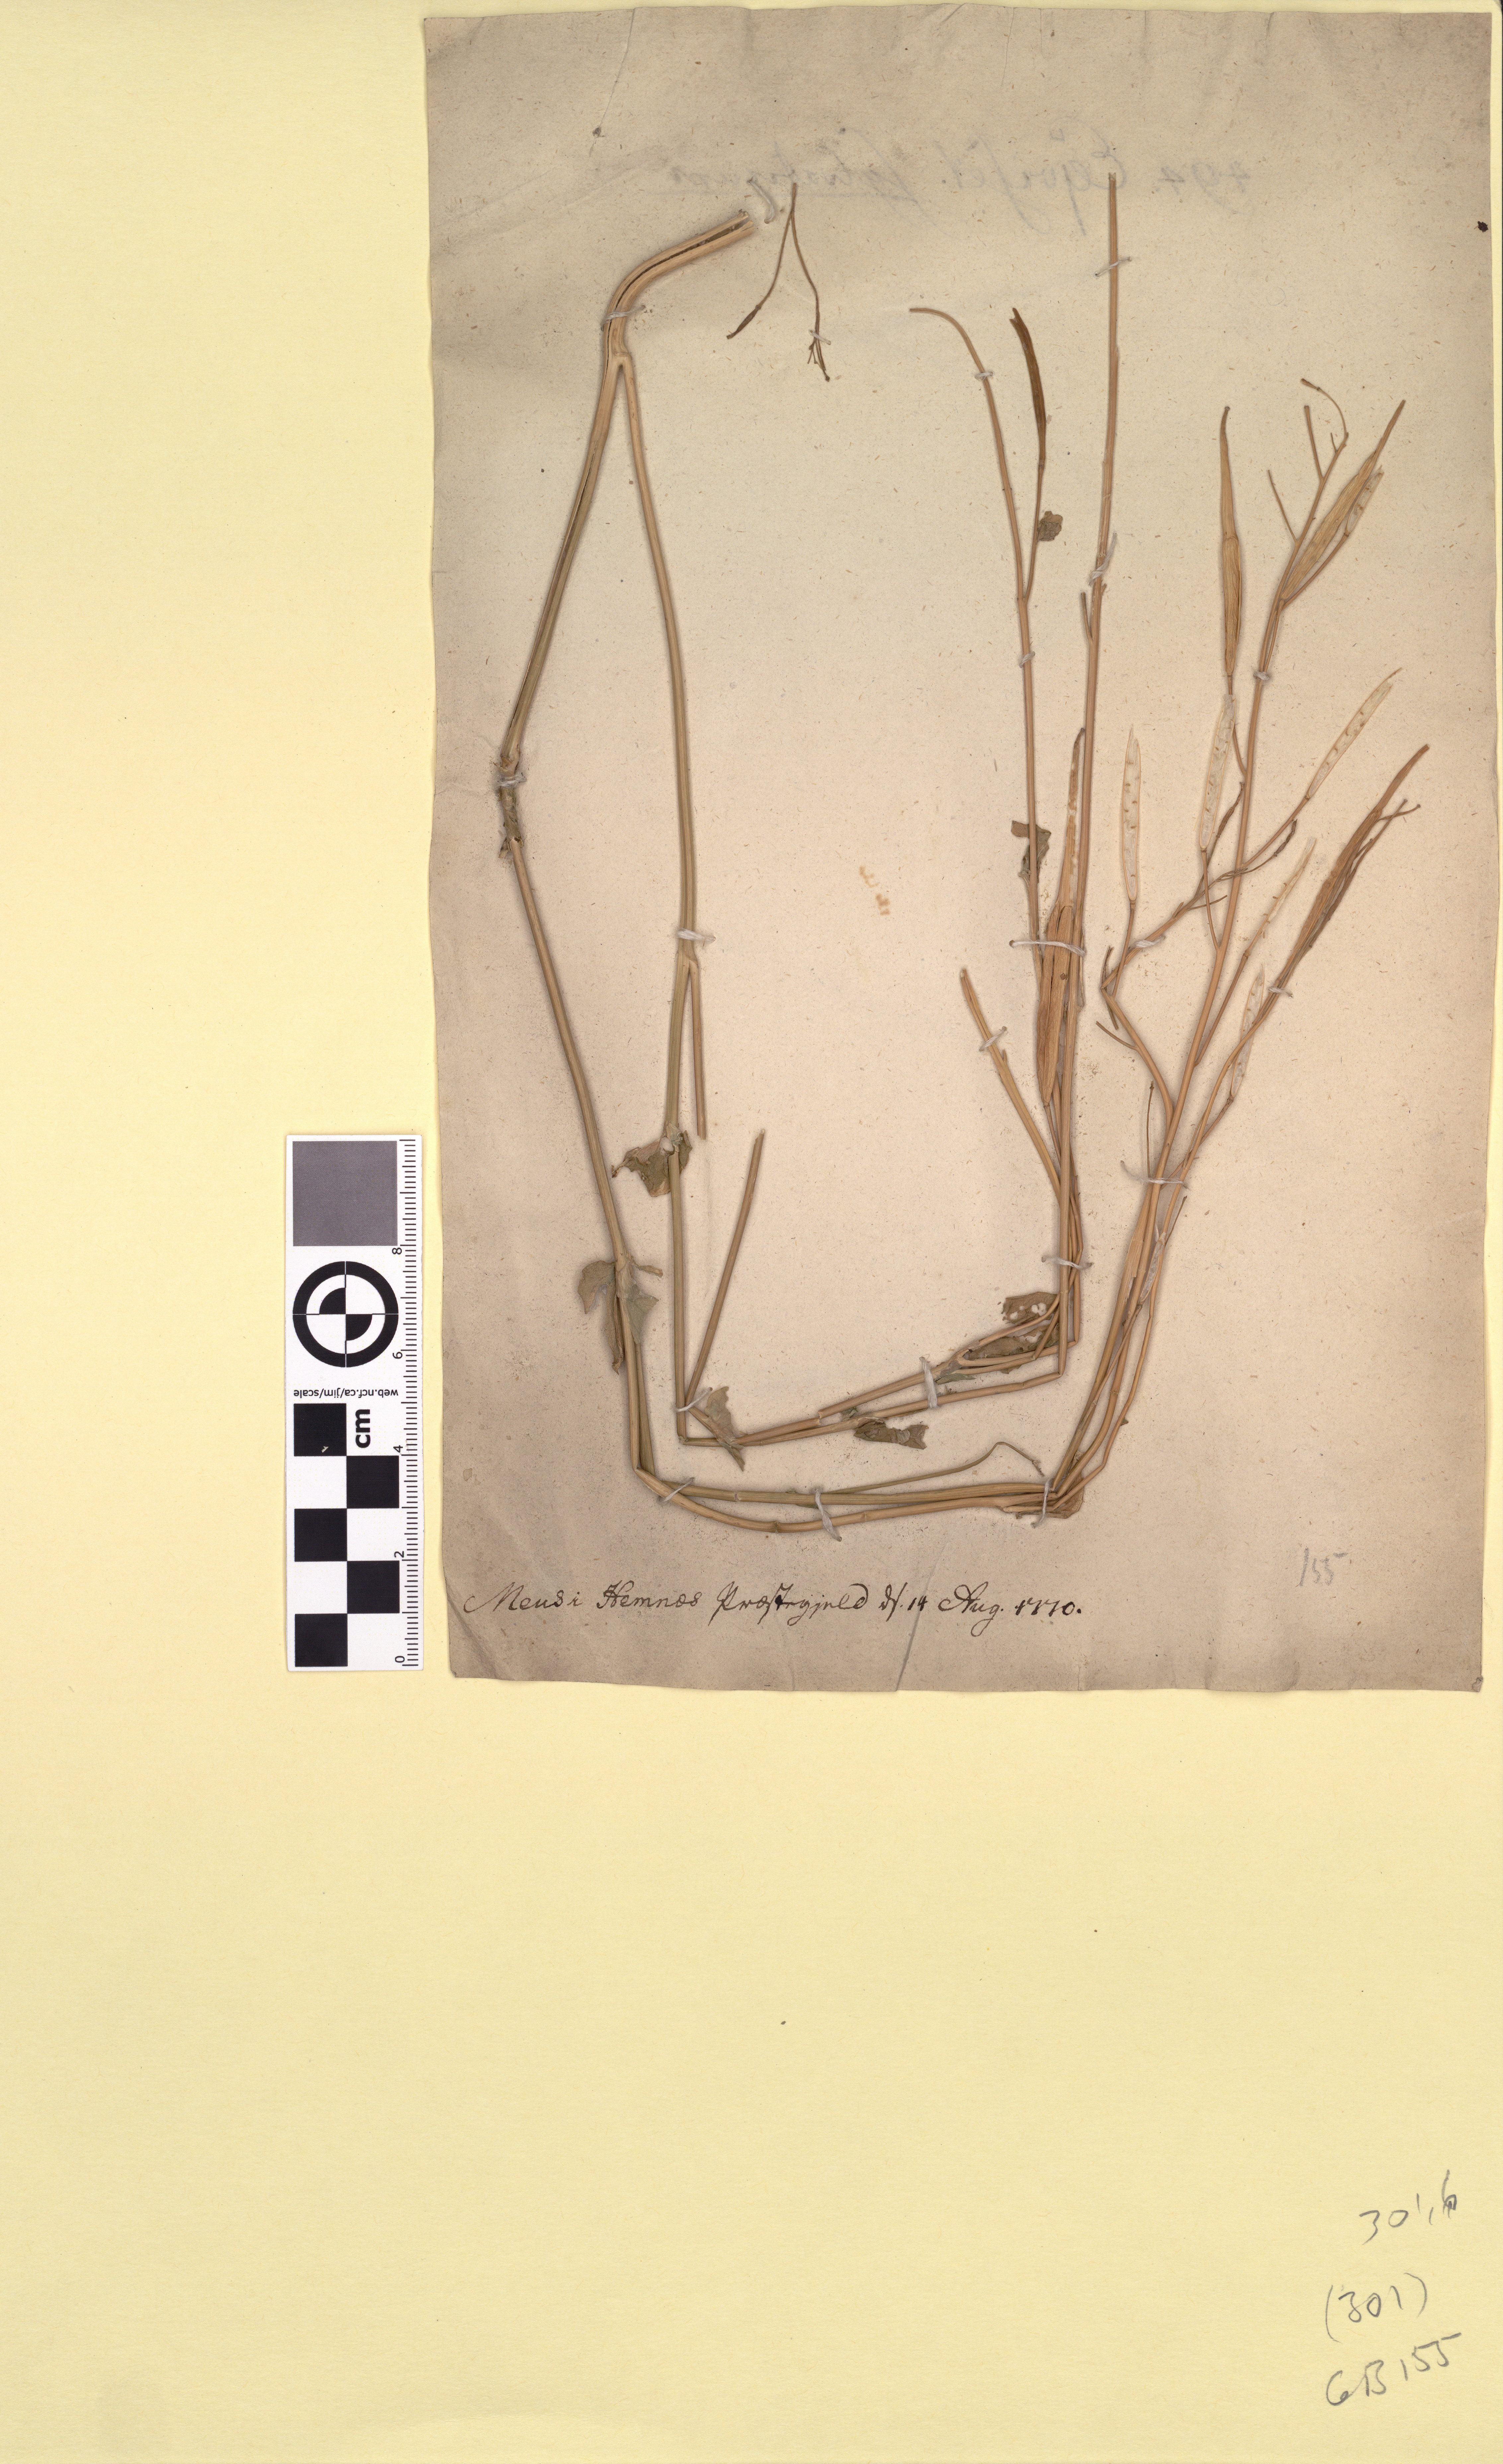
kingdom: Plantae
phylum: Tracheophyta
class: Magnoliopsida
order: Brassicales
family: Brassicaceae
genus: Brassica
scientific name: Brassica rapa
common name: Field mustard
